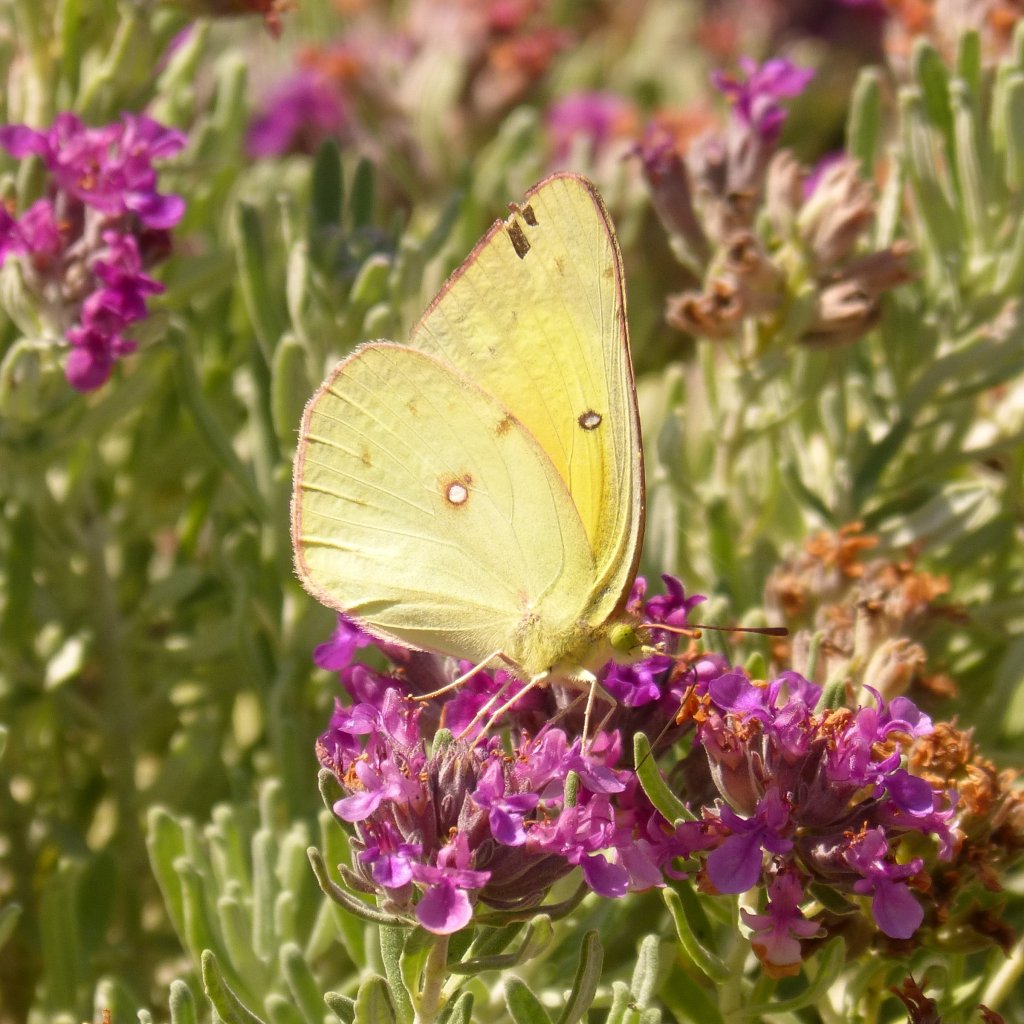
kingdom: Animalia
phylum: Arthropoda
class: Insecta
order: Lepidoptera
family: Pieridae
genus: Colias
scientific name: Colias eurytheme
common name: Orange Sulphur
